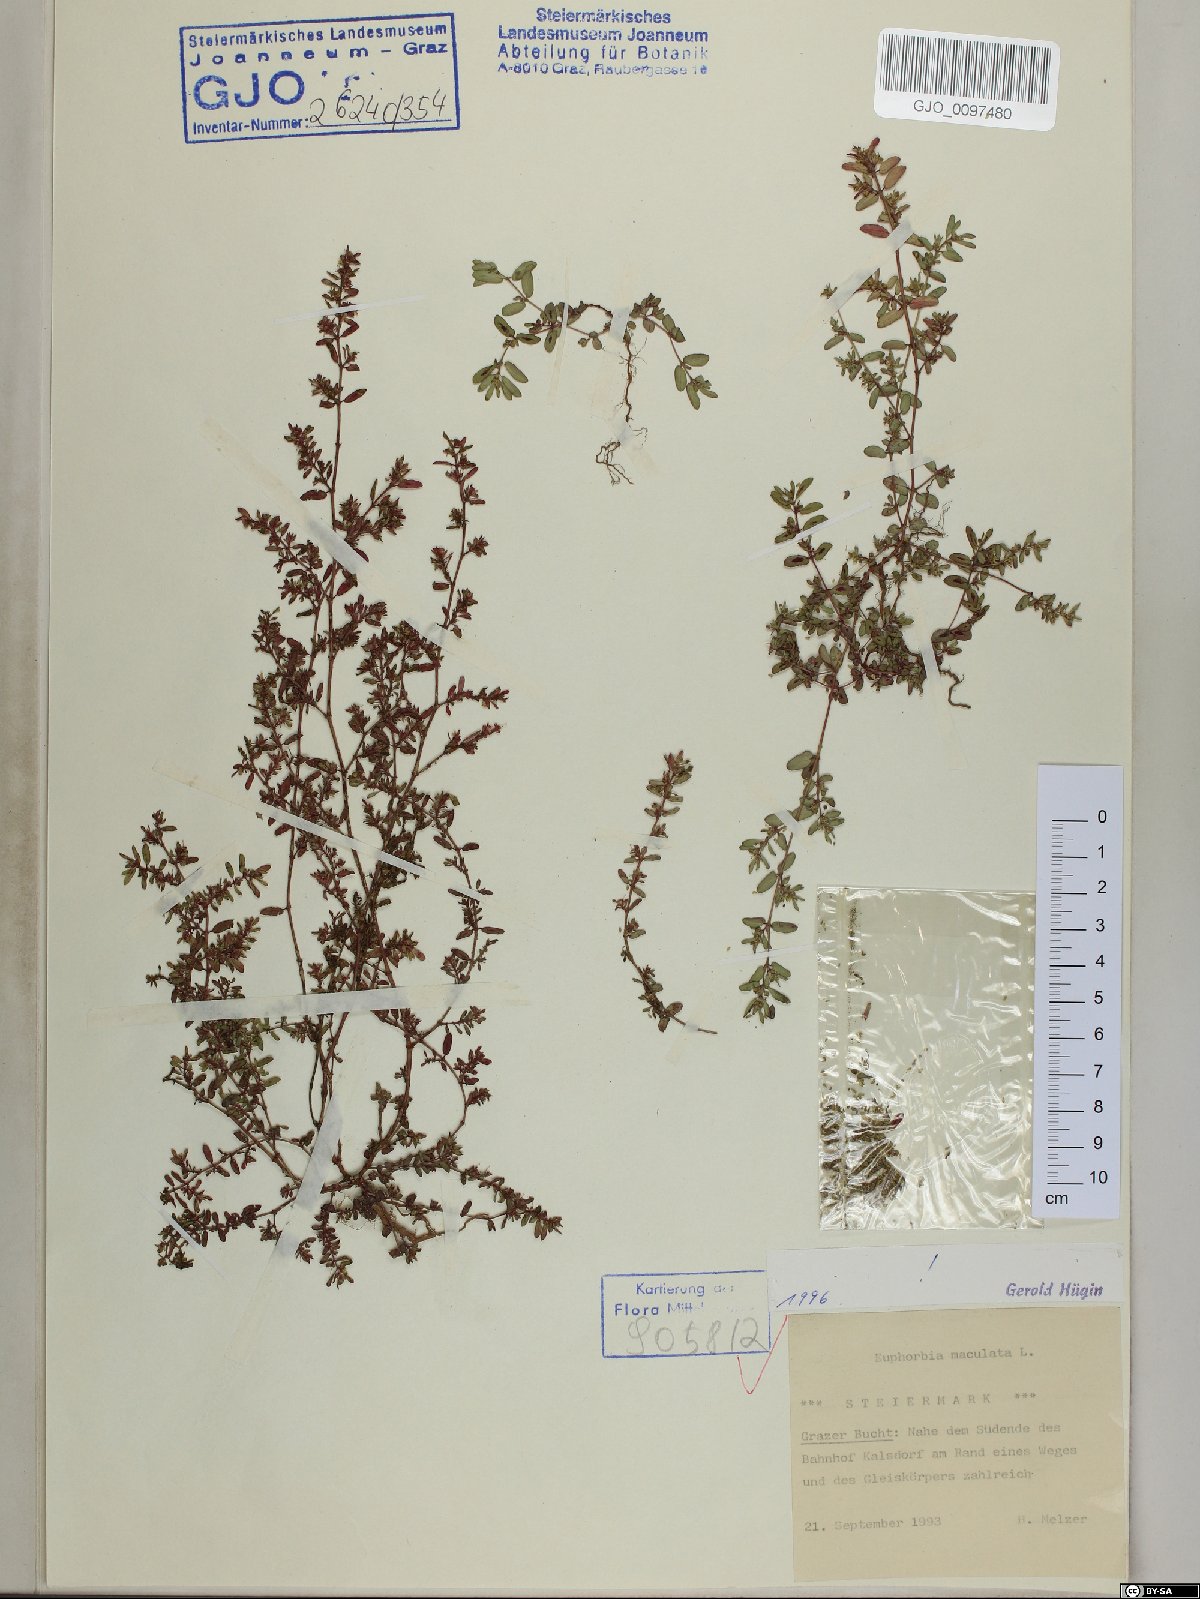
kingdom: Plantae
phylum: Tracheophyta
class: Magnoliopsida
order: Malpighiales
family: Euphorbiaceae
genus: Euphorbia
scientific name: Euphorbia maculata
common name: Spotted spurge
